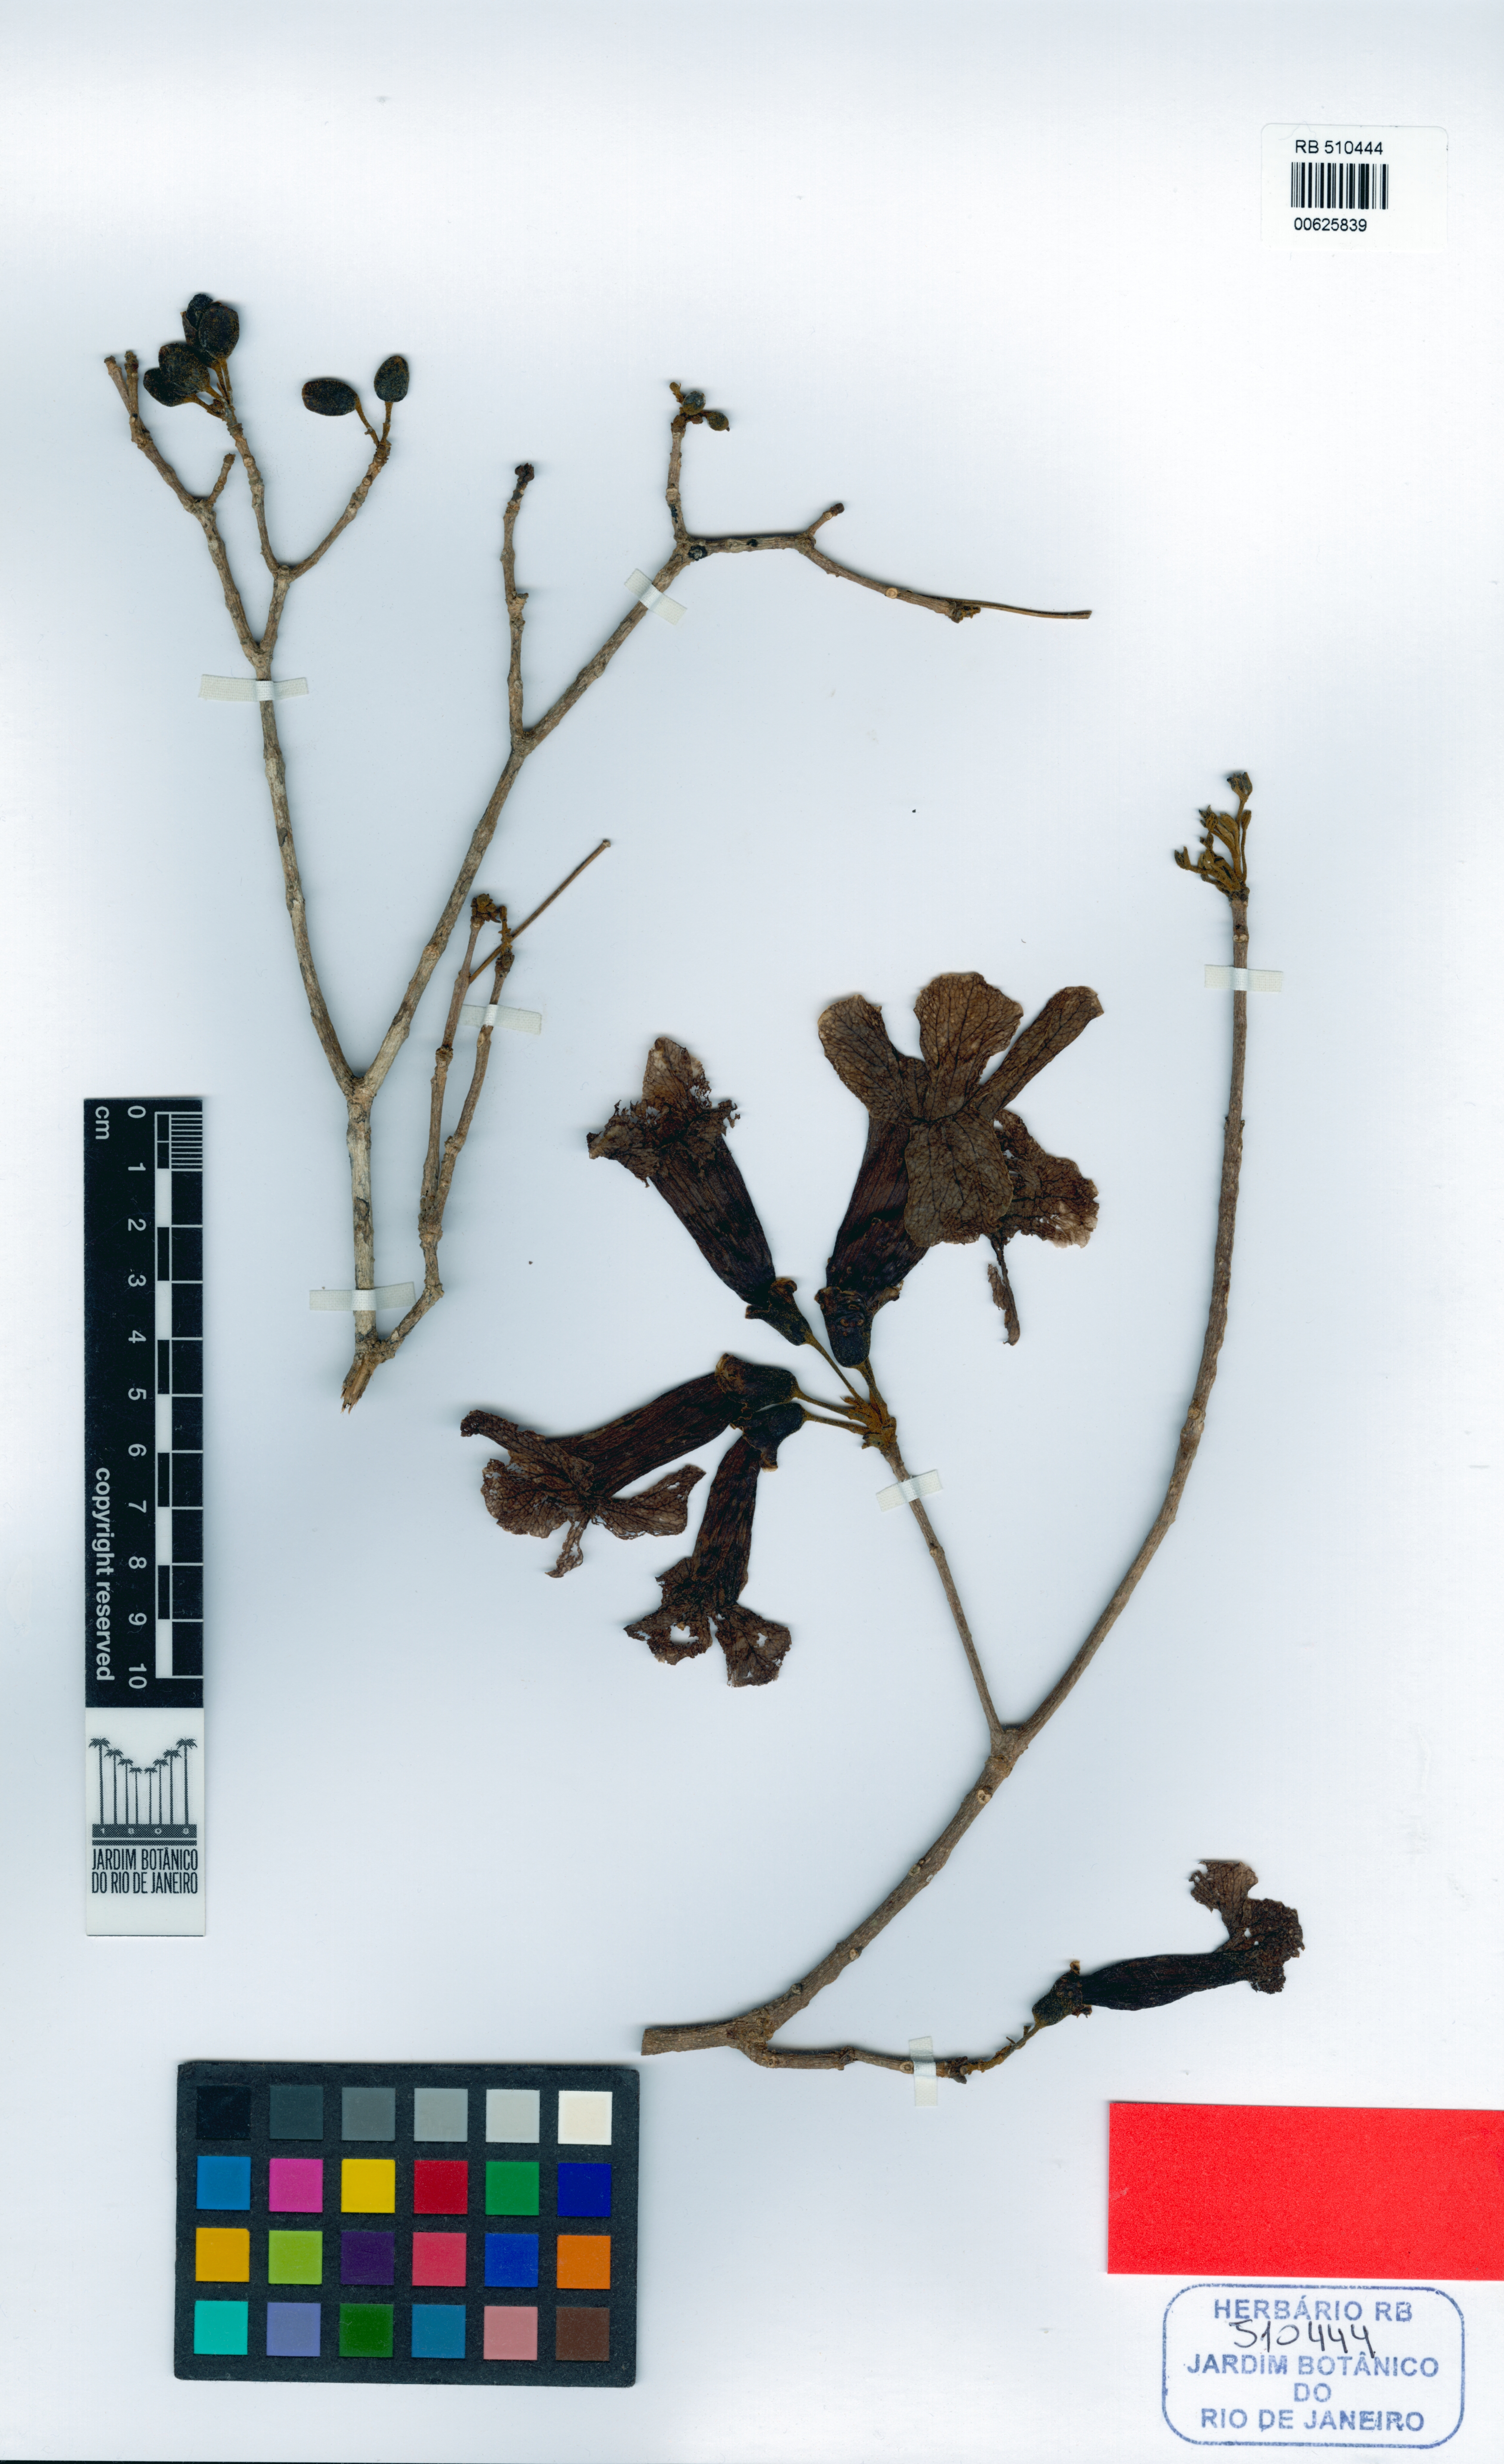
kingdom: Plantae
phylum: Tracheophyta
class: Magnoliopsida
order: Lamiales
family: Bignoniaceae
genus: Handroanthus
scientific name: Handroanthus riodocensis
